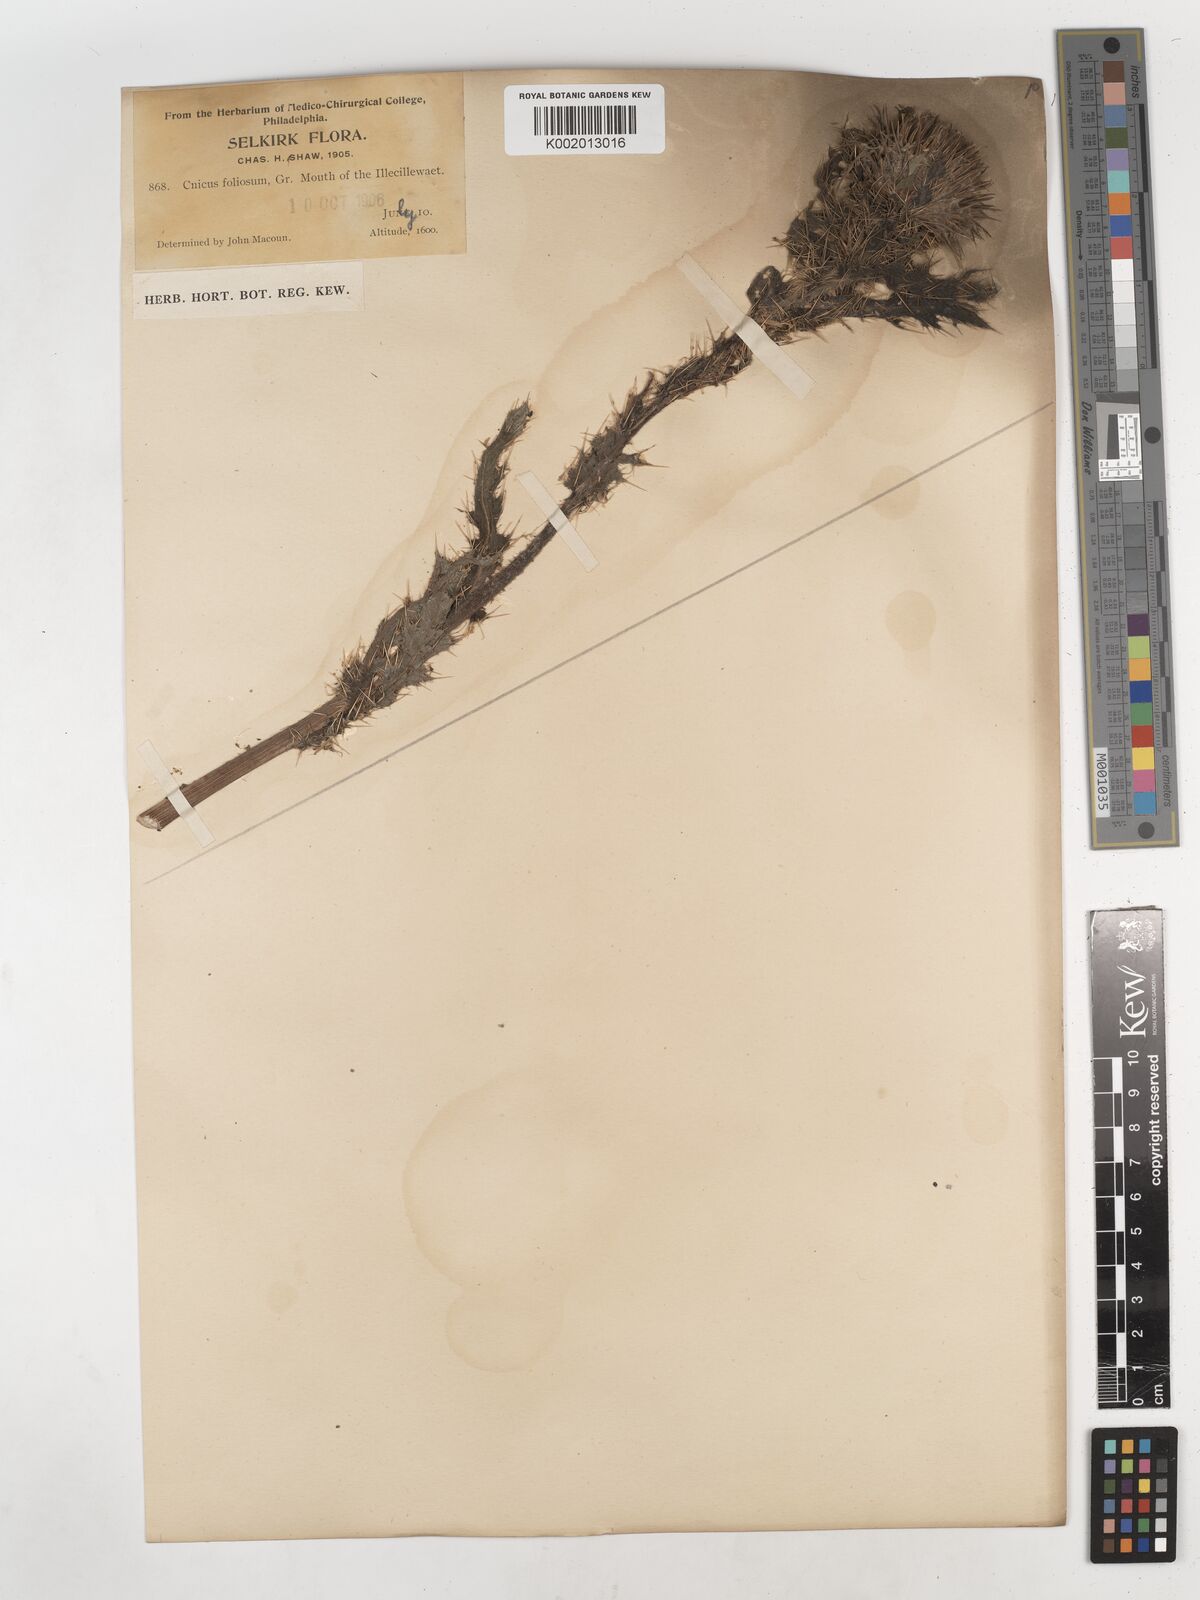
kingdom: Plantae
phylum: Tracheophyta
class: Magnoliopsida
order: Asterales
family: Asteraceae
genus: Cirsium
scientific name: Cirsium foliosum
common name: Elk thistle
